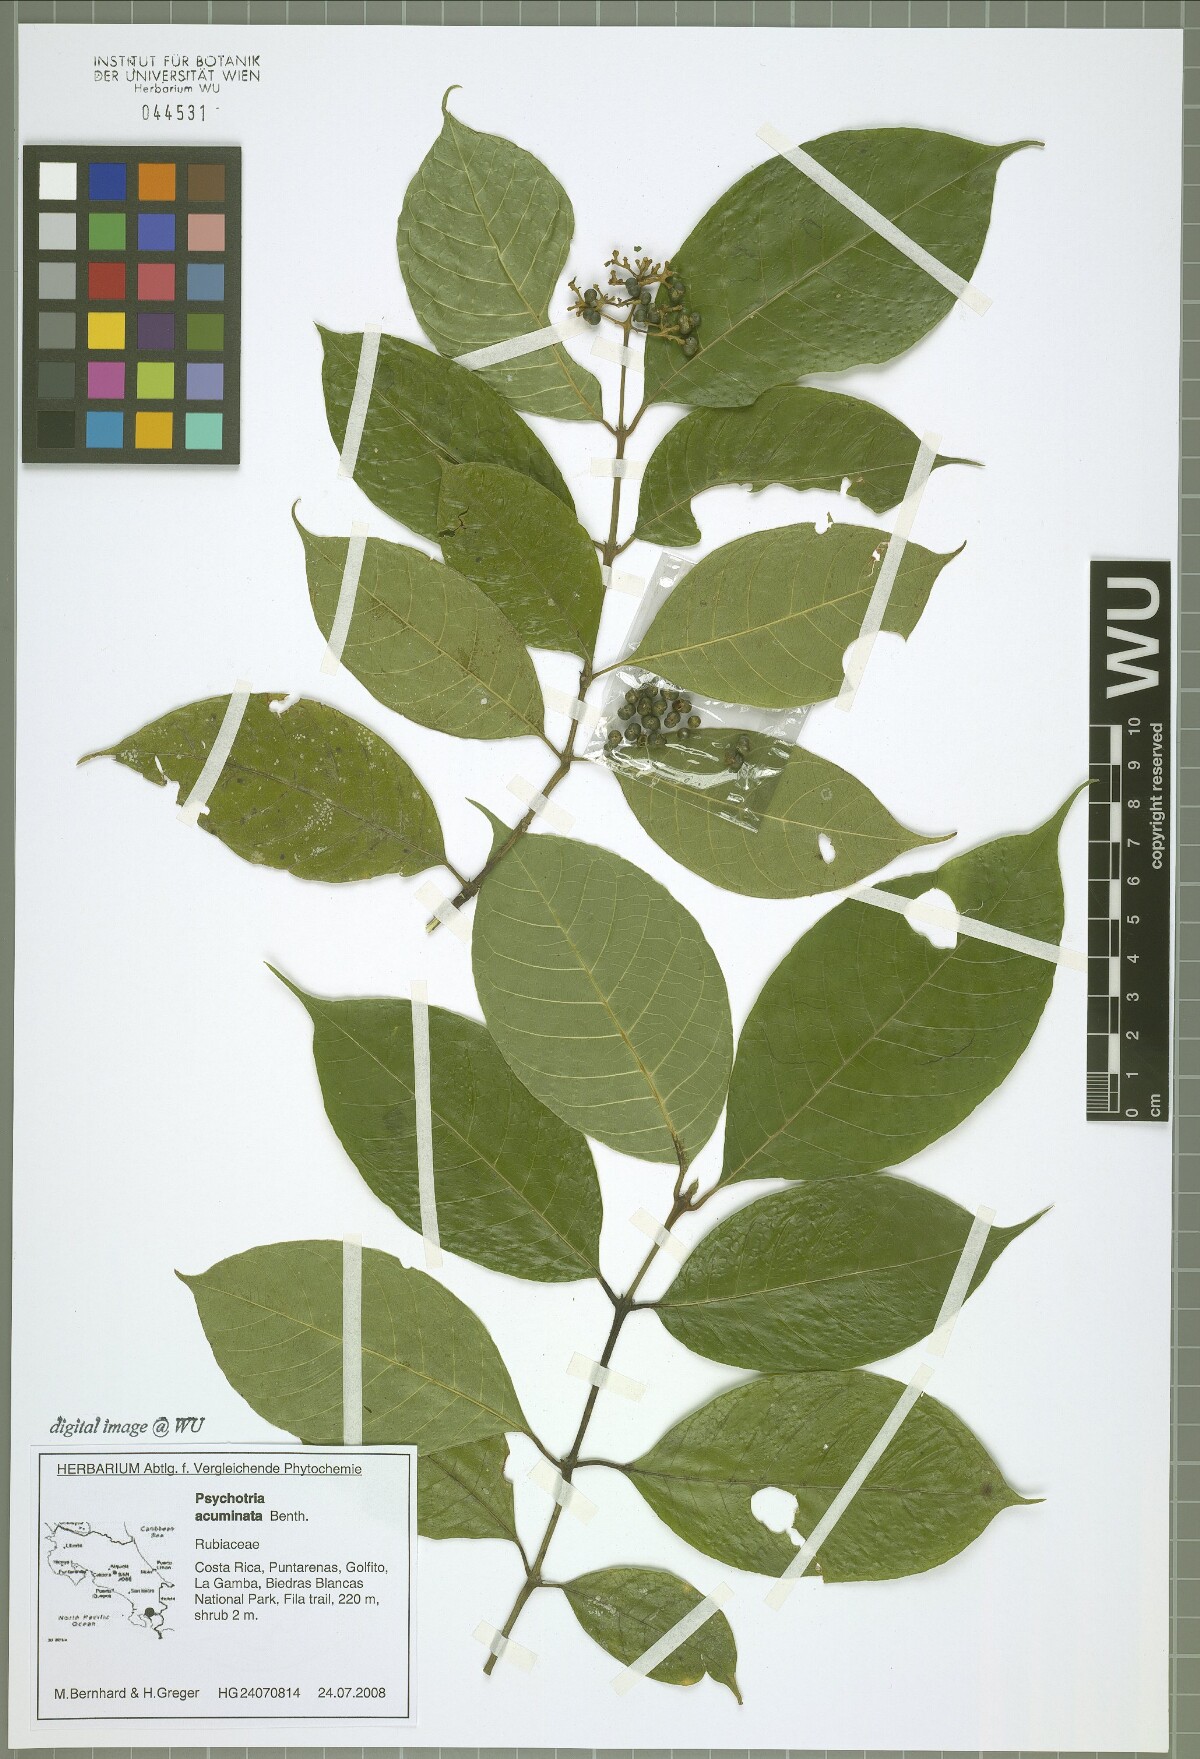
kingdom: Plantae
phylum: Tracheophyta
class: Magnoliopsida
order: Gentianales
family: Rubiaceae
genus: Palicourea
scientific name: Palicourea acuminata
